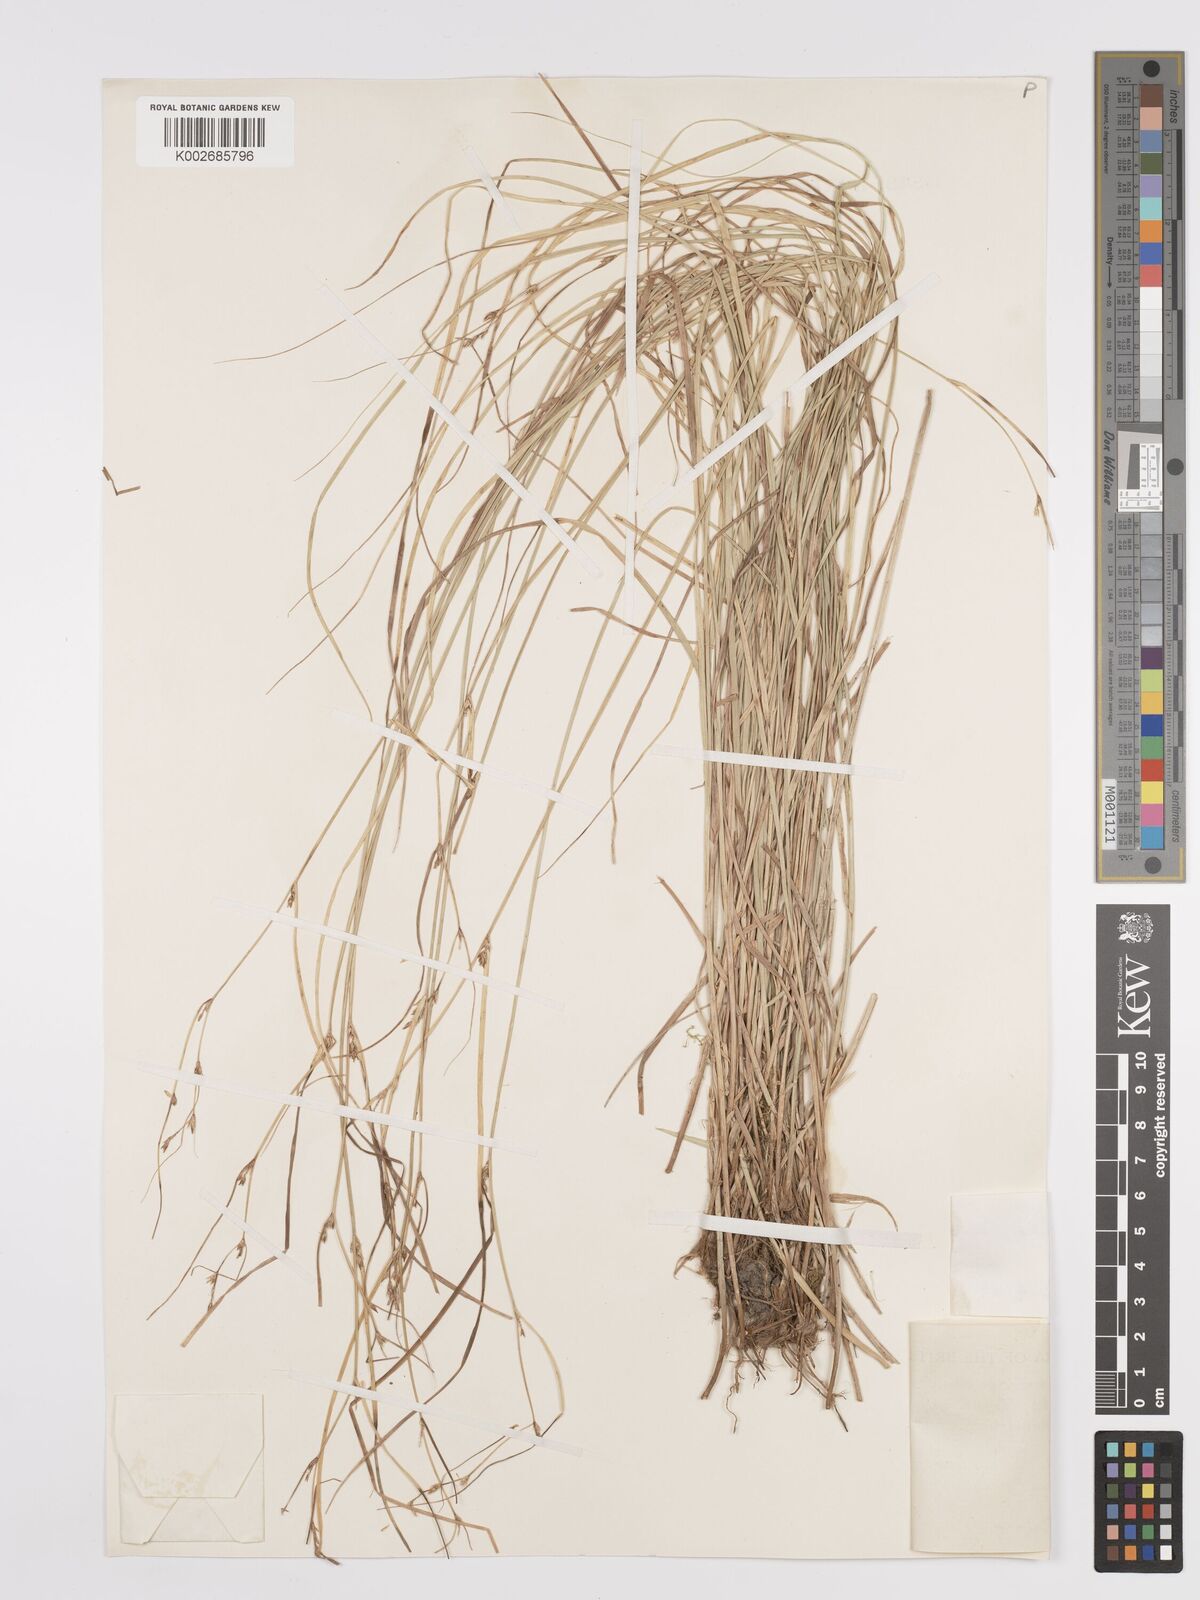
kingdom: Plantae
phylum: Tracheophyta
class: Liliopsida
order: Poales
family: Cyperaceae
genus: Carex
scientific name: Carex remota
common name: Remote sedge
